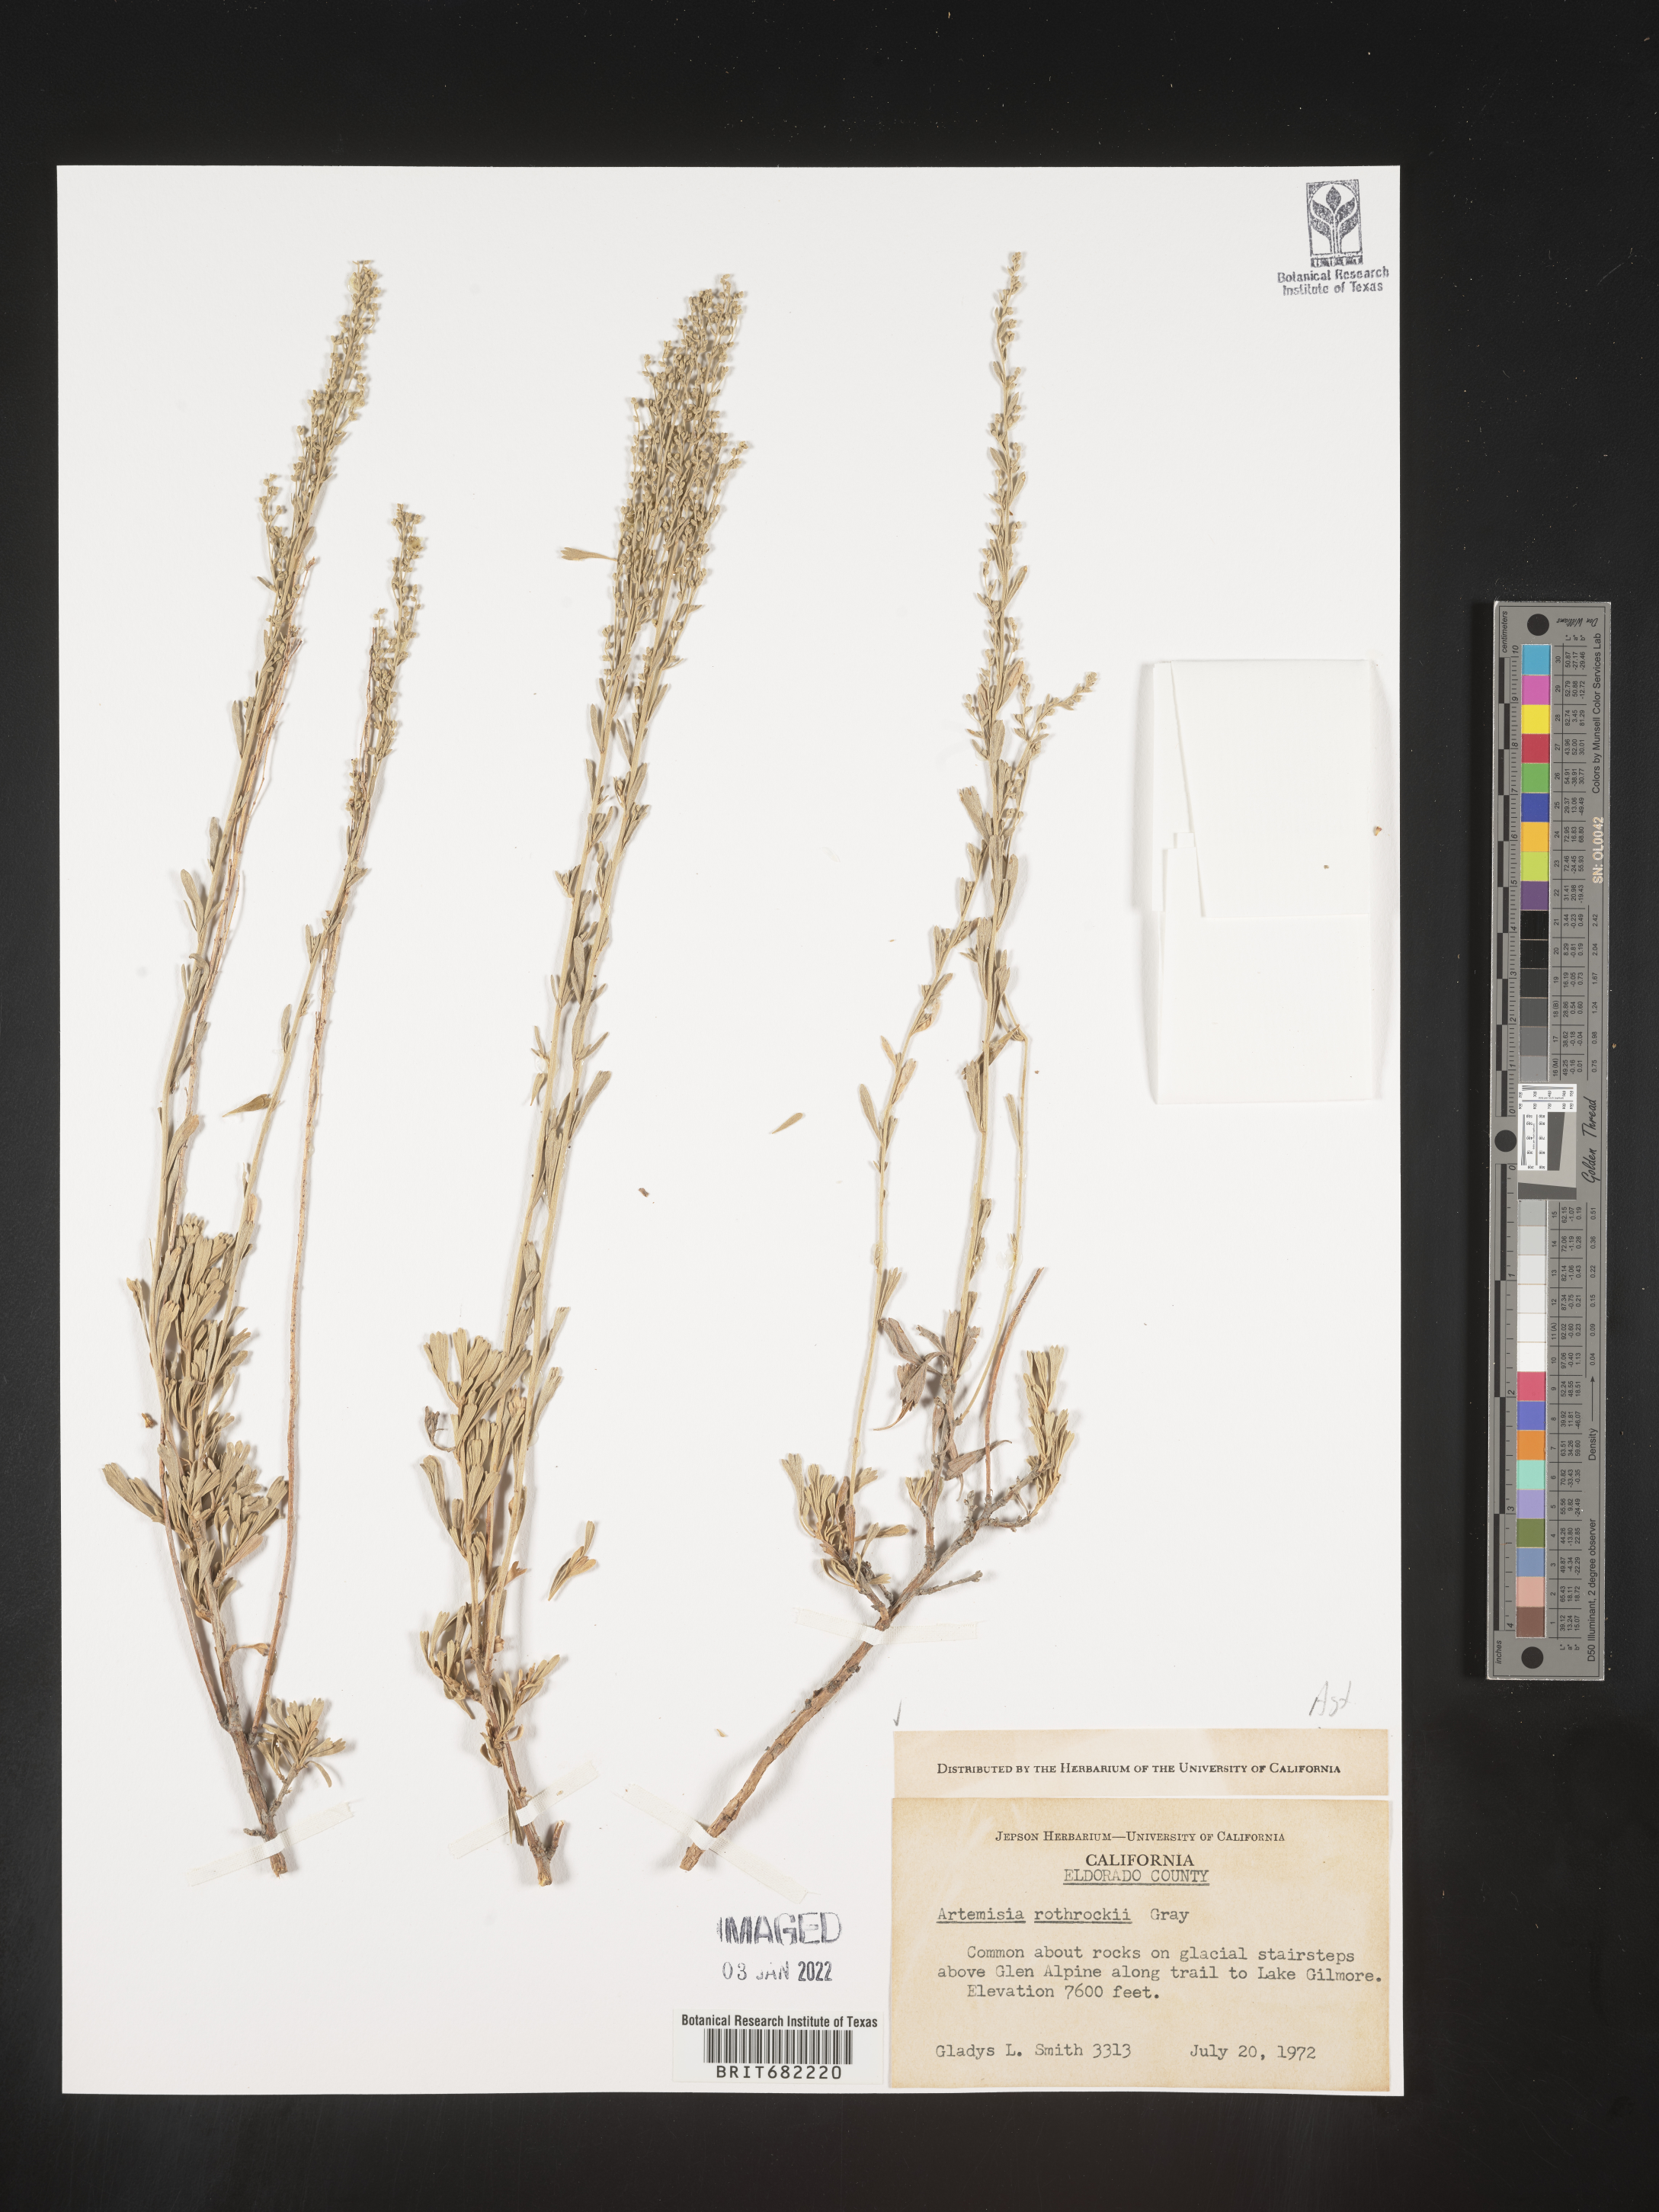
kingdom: Plantae
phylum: Tracheophyta
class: Magnoliopsida
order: Asterales
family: Asteraceae
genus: Artemisia
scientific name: Artemisia rothrockii
